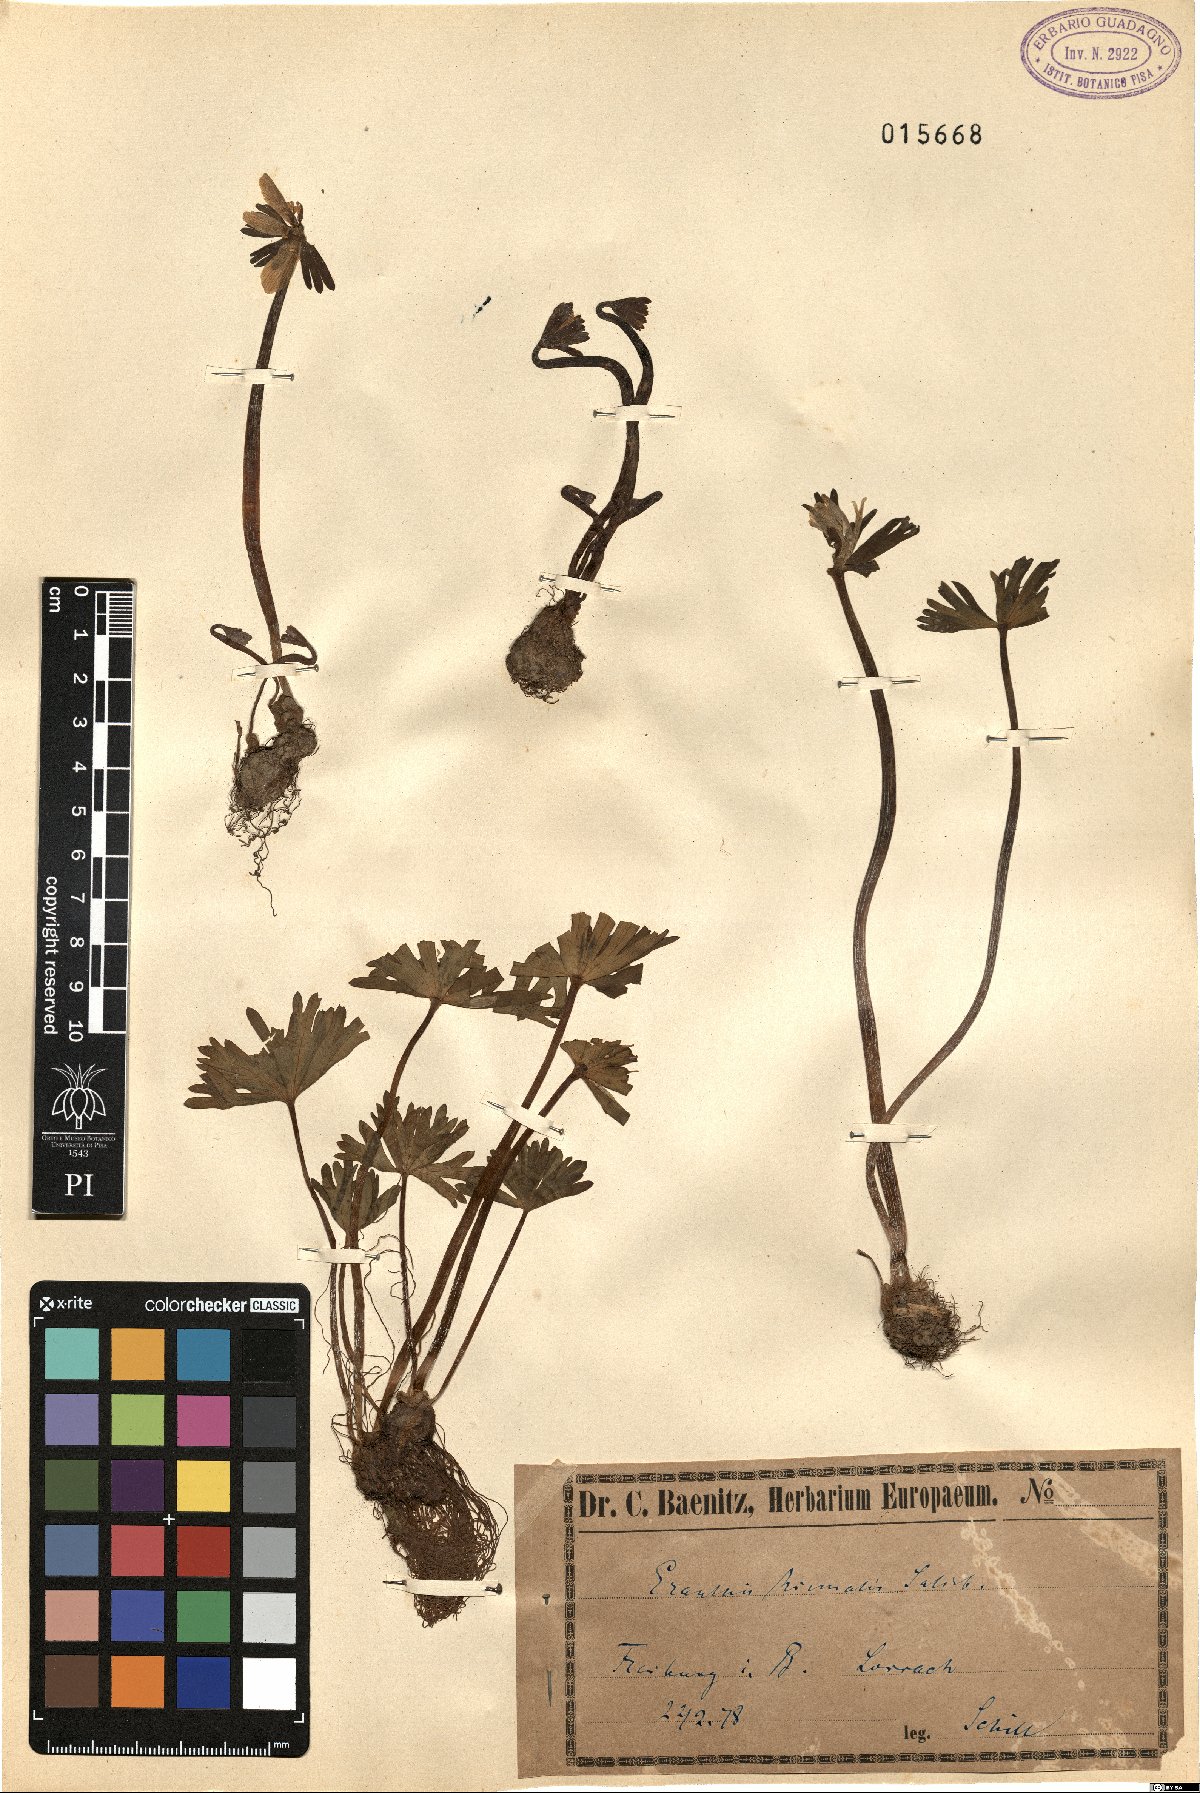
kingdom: Plantae
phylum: Tracheophyta
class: Magnoliopsida
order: Ranunculales
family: Ranunculaceae
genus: Eranthis
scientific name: Eranthis hyemalis
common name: Winter aconite
